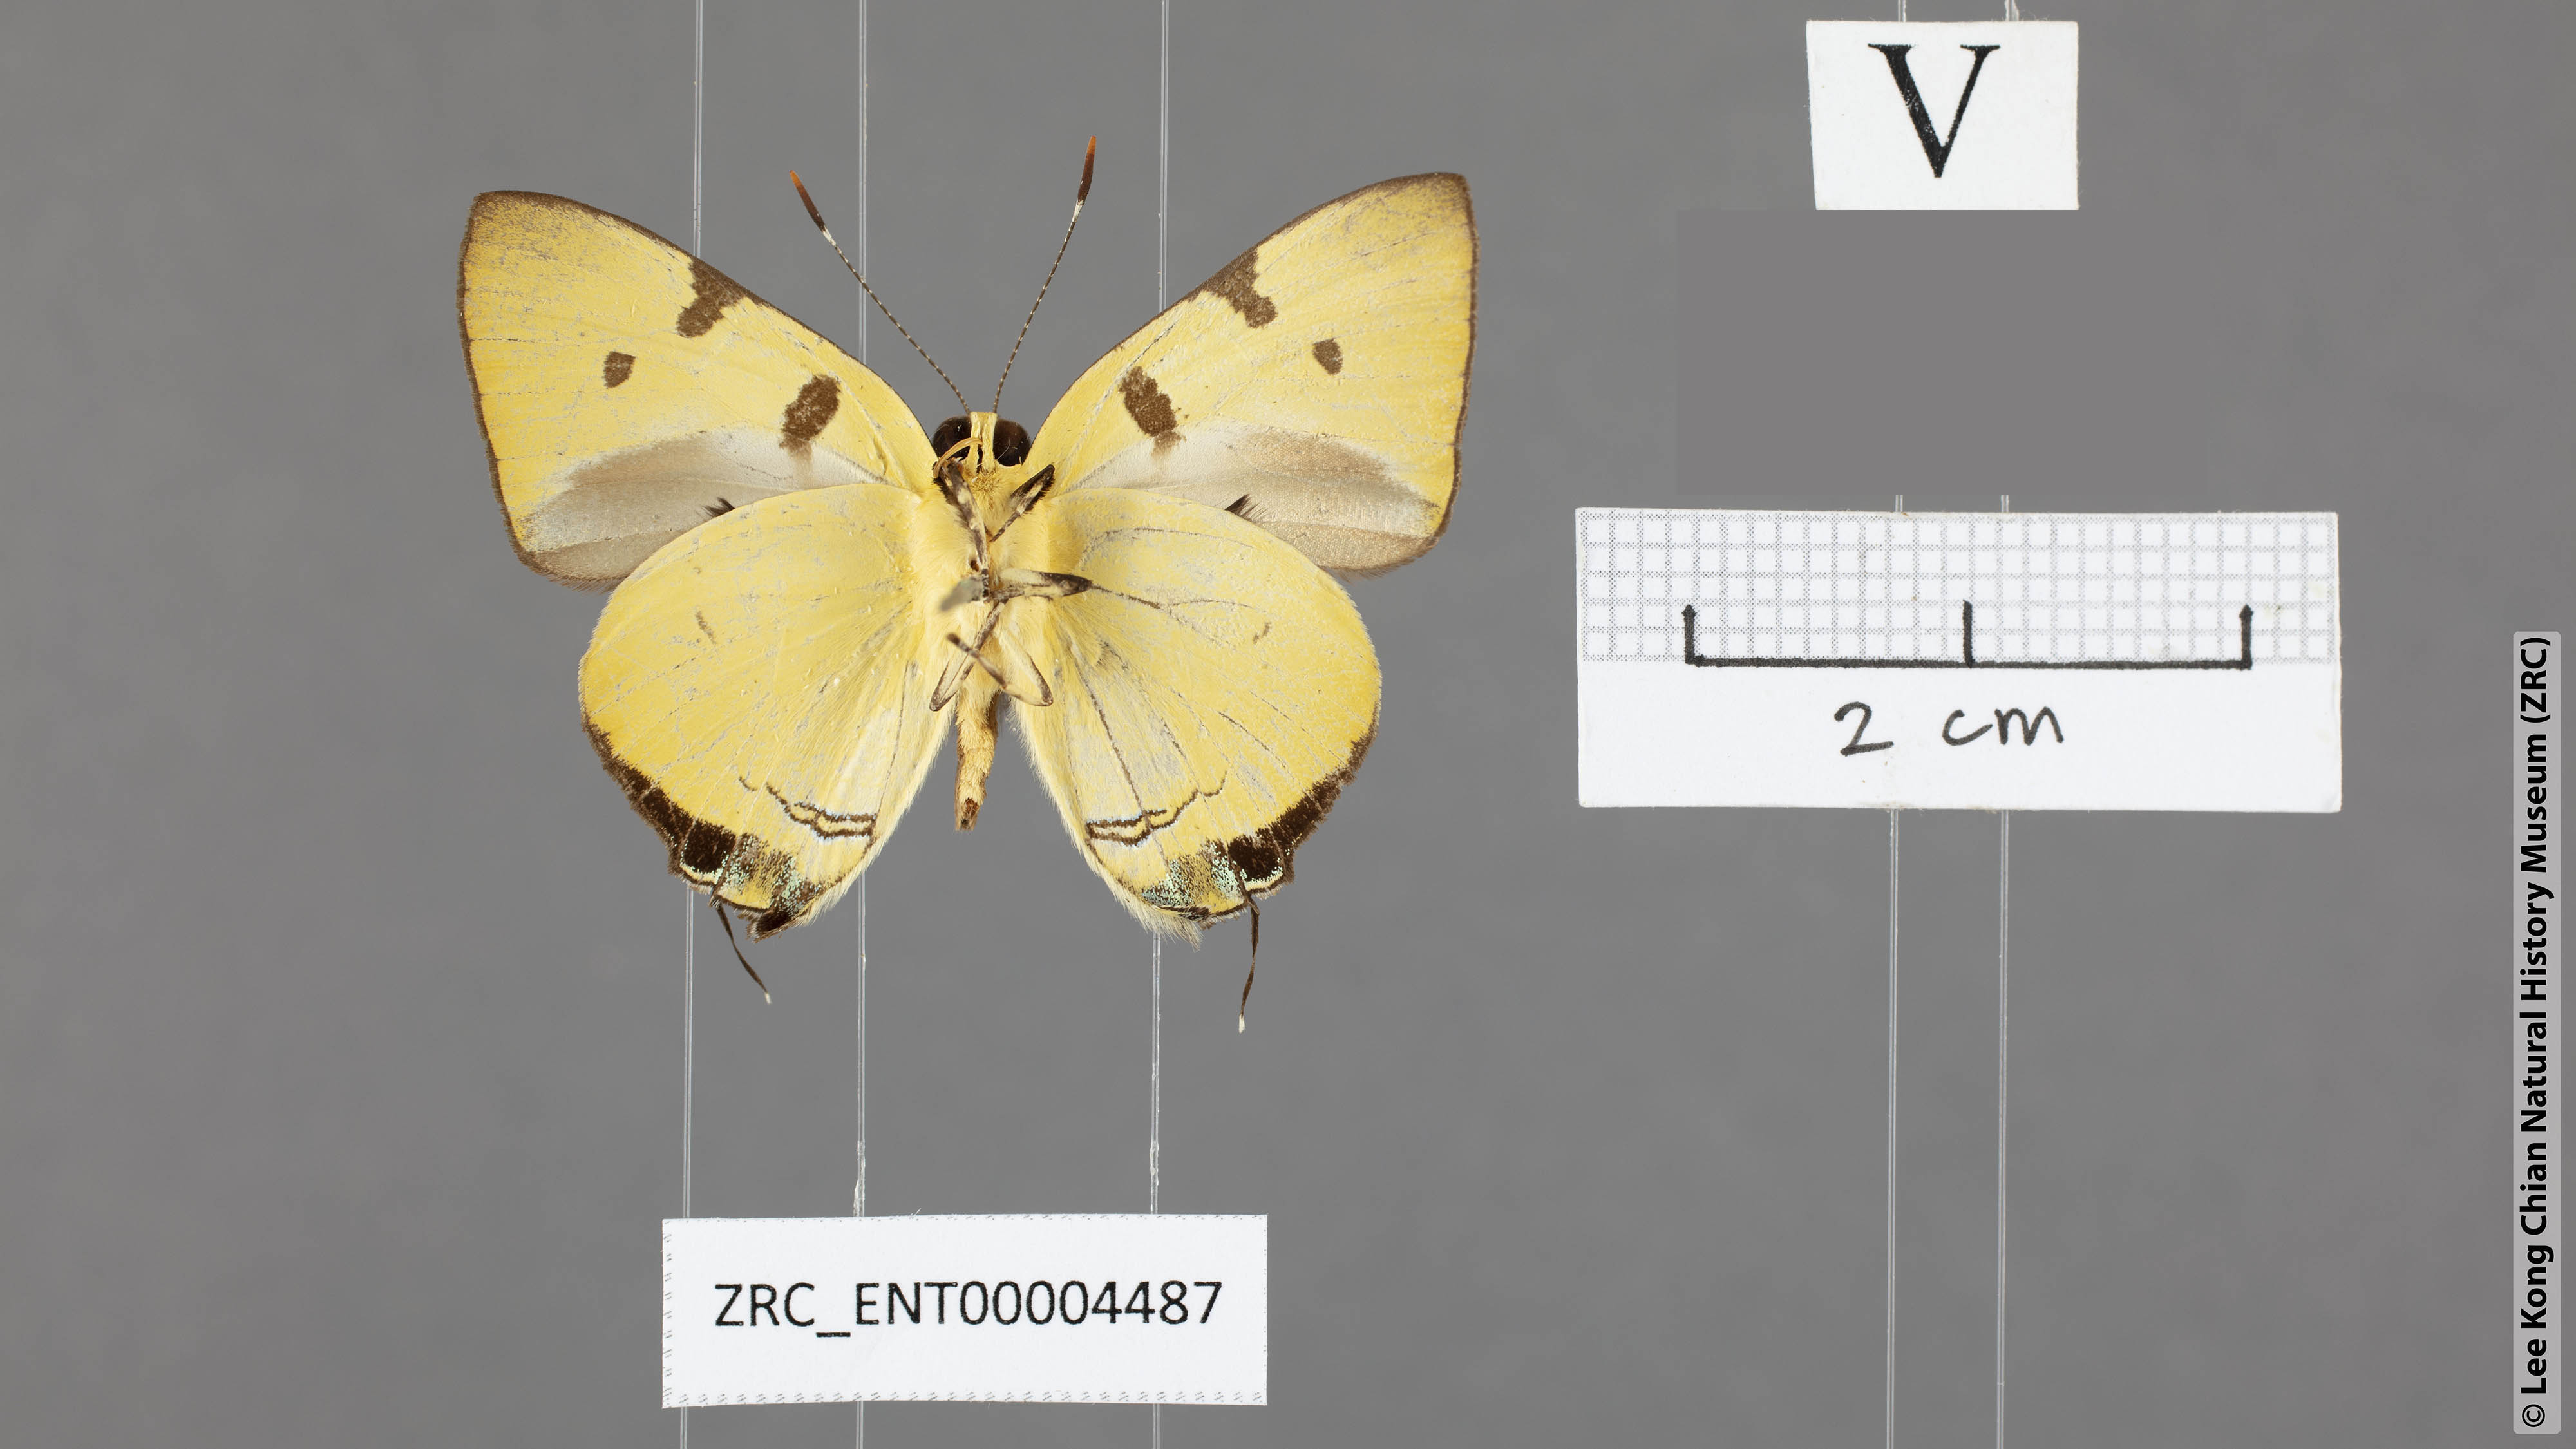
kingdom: Animalia
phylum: Arthropoda
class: Insecta
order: Lepidoptera
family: Lycaenidae
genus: Rapala
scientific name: Rapala domitia
